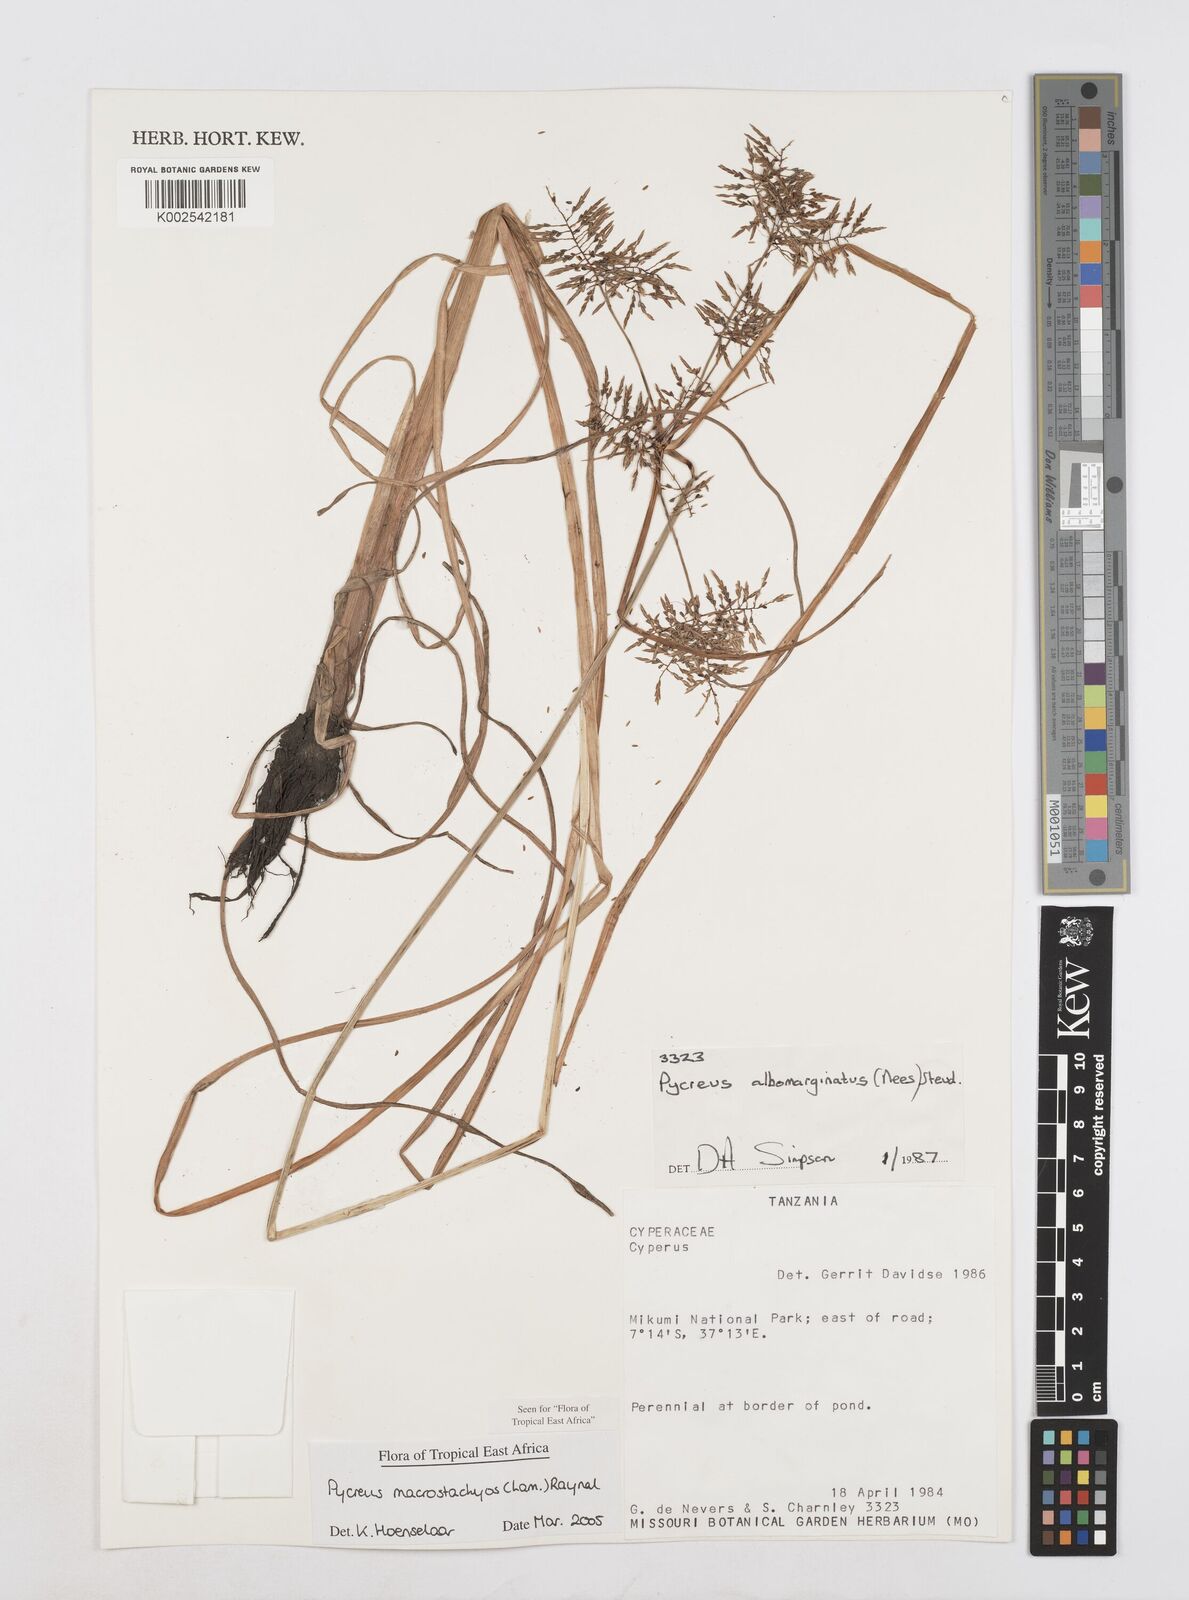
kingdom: Plantae
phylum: Tracheophyta
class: Liliopsida
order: Poales
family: Cyperaceae
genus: Cyperus
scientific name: Cyperus macrostachyos
